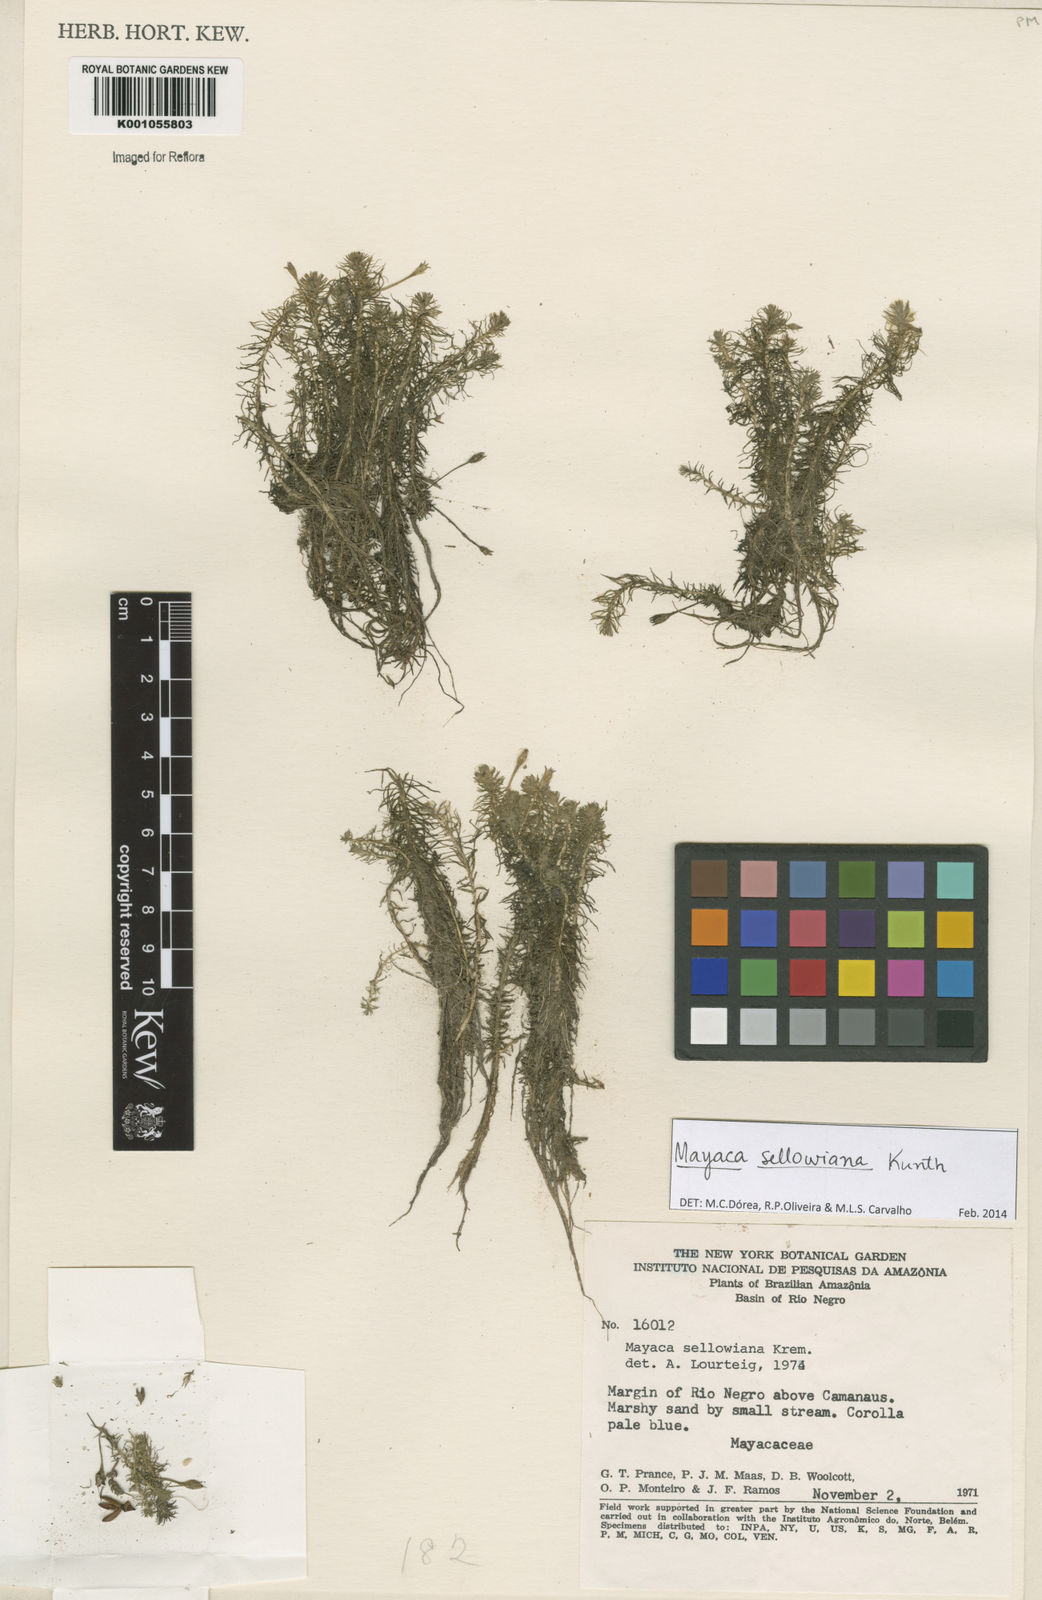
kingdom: Plantae
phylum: Tracheophyta
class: Liliopsida
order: Poales
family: Mayacaceae
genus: Mayaca
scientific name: Mayaca sellowiana
